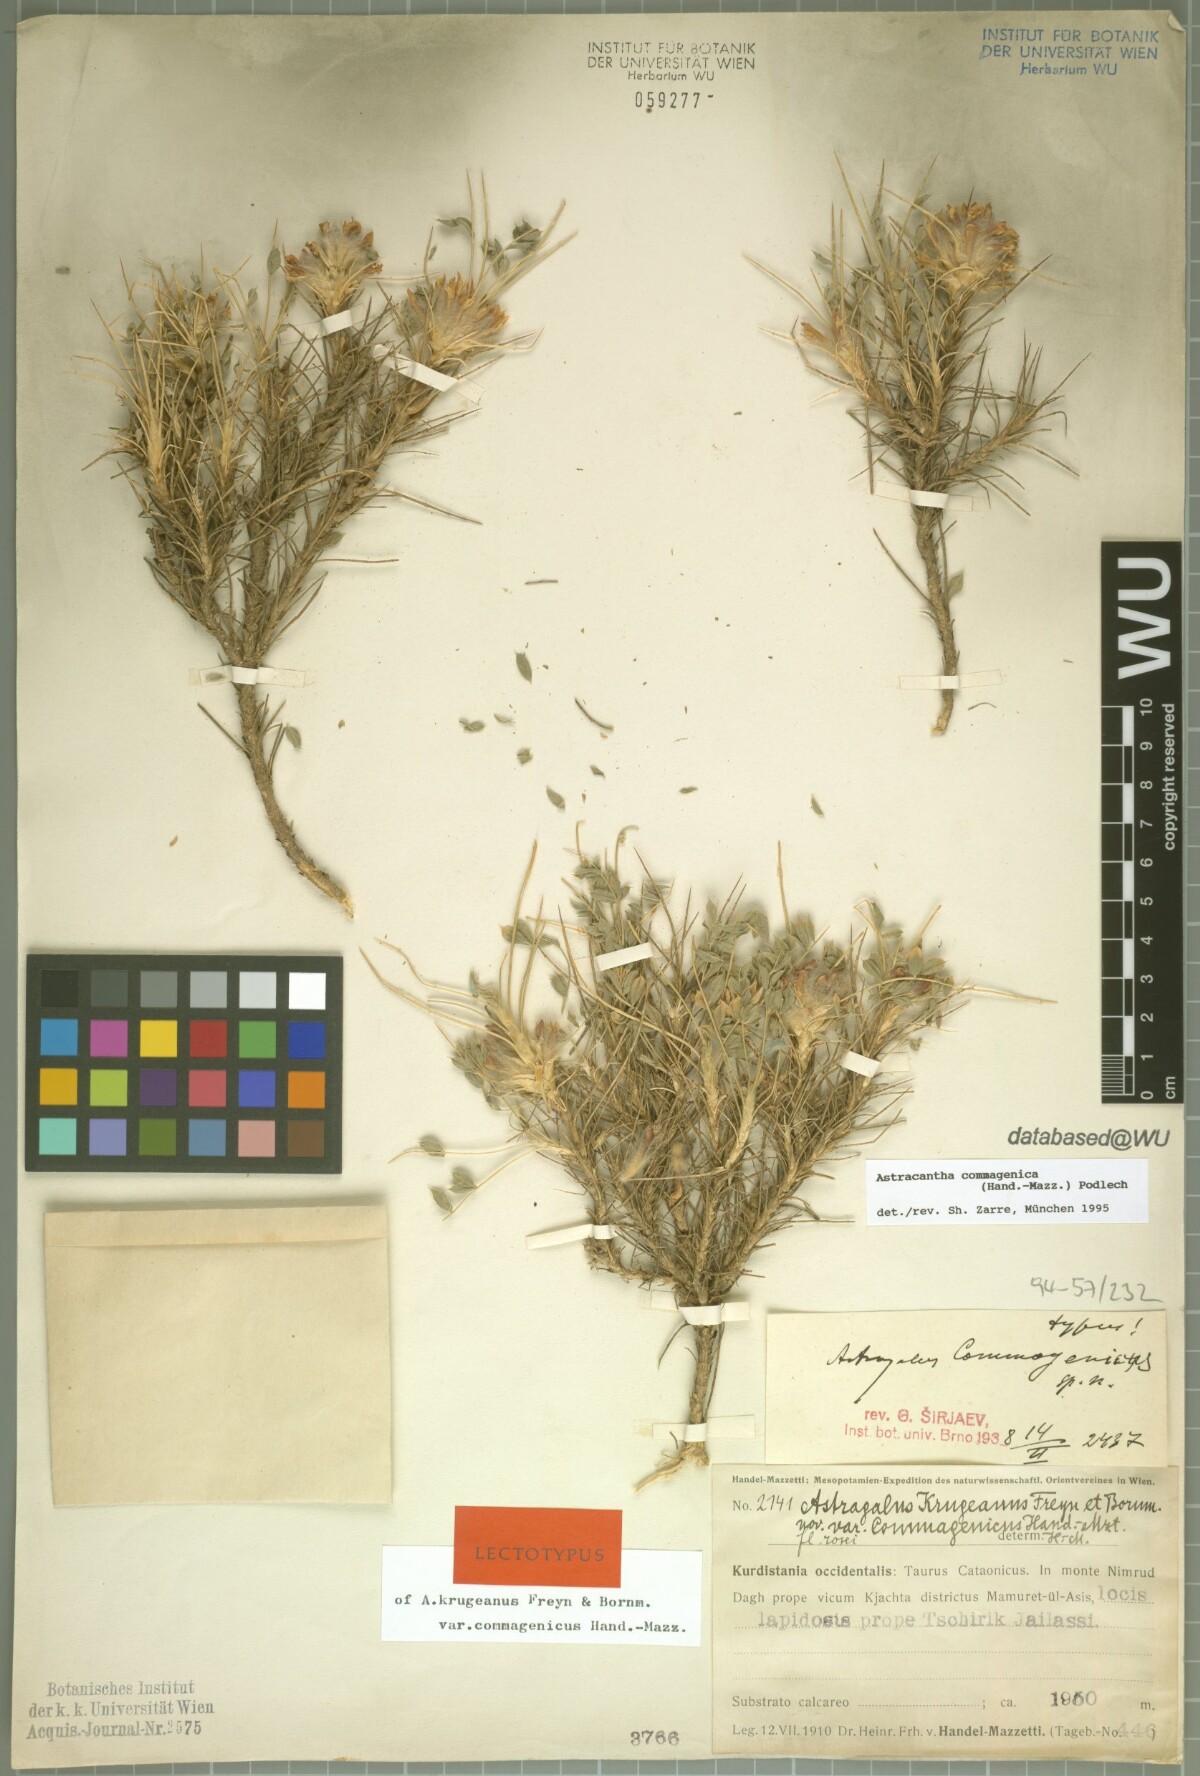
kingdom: Plantae
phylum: Tracheophyta
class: Magnoliopsida
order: Fabales
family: Fabaceae
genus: Astragalus
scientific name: Astragalus commagenicus
